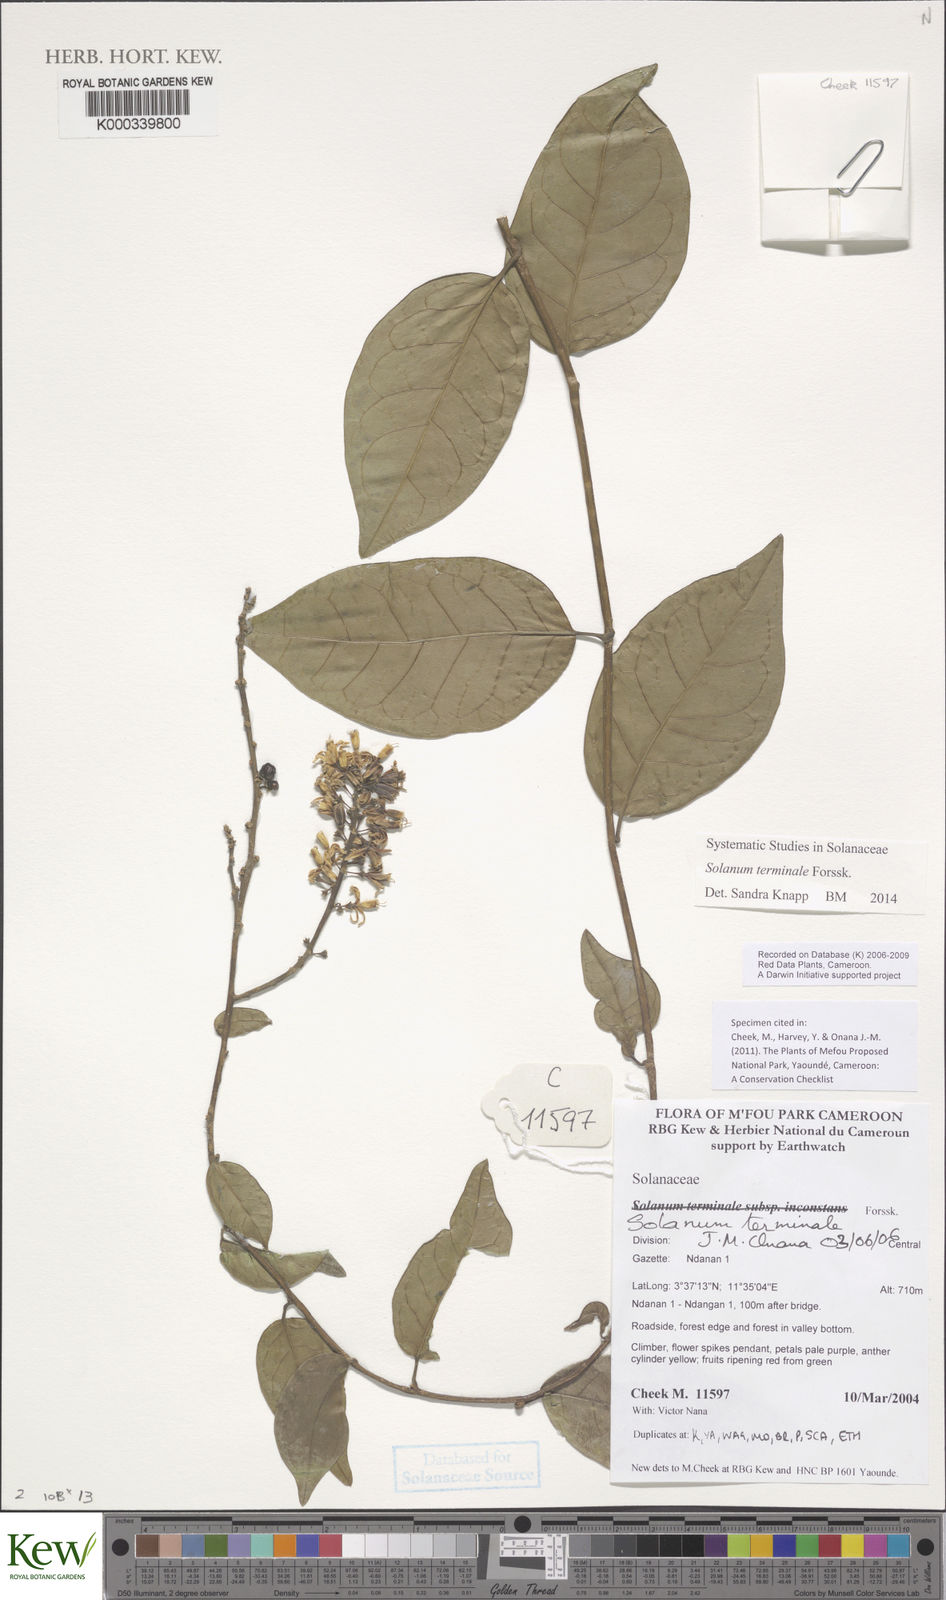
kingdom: Plantae
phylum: Tracheophyta
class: Magnoliopsida
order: Solanales
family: Solanaceae
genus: Solanum
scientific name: Solanum terminale
